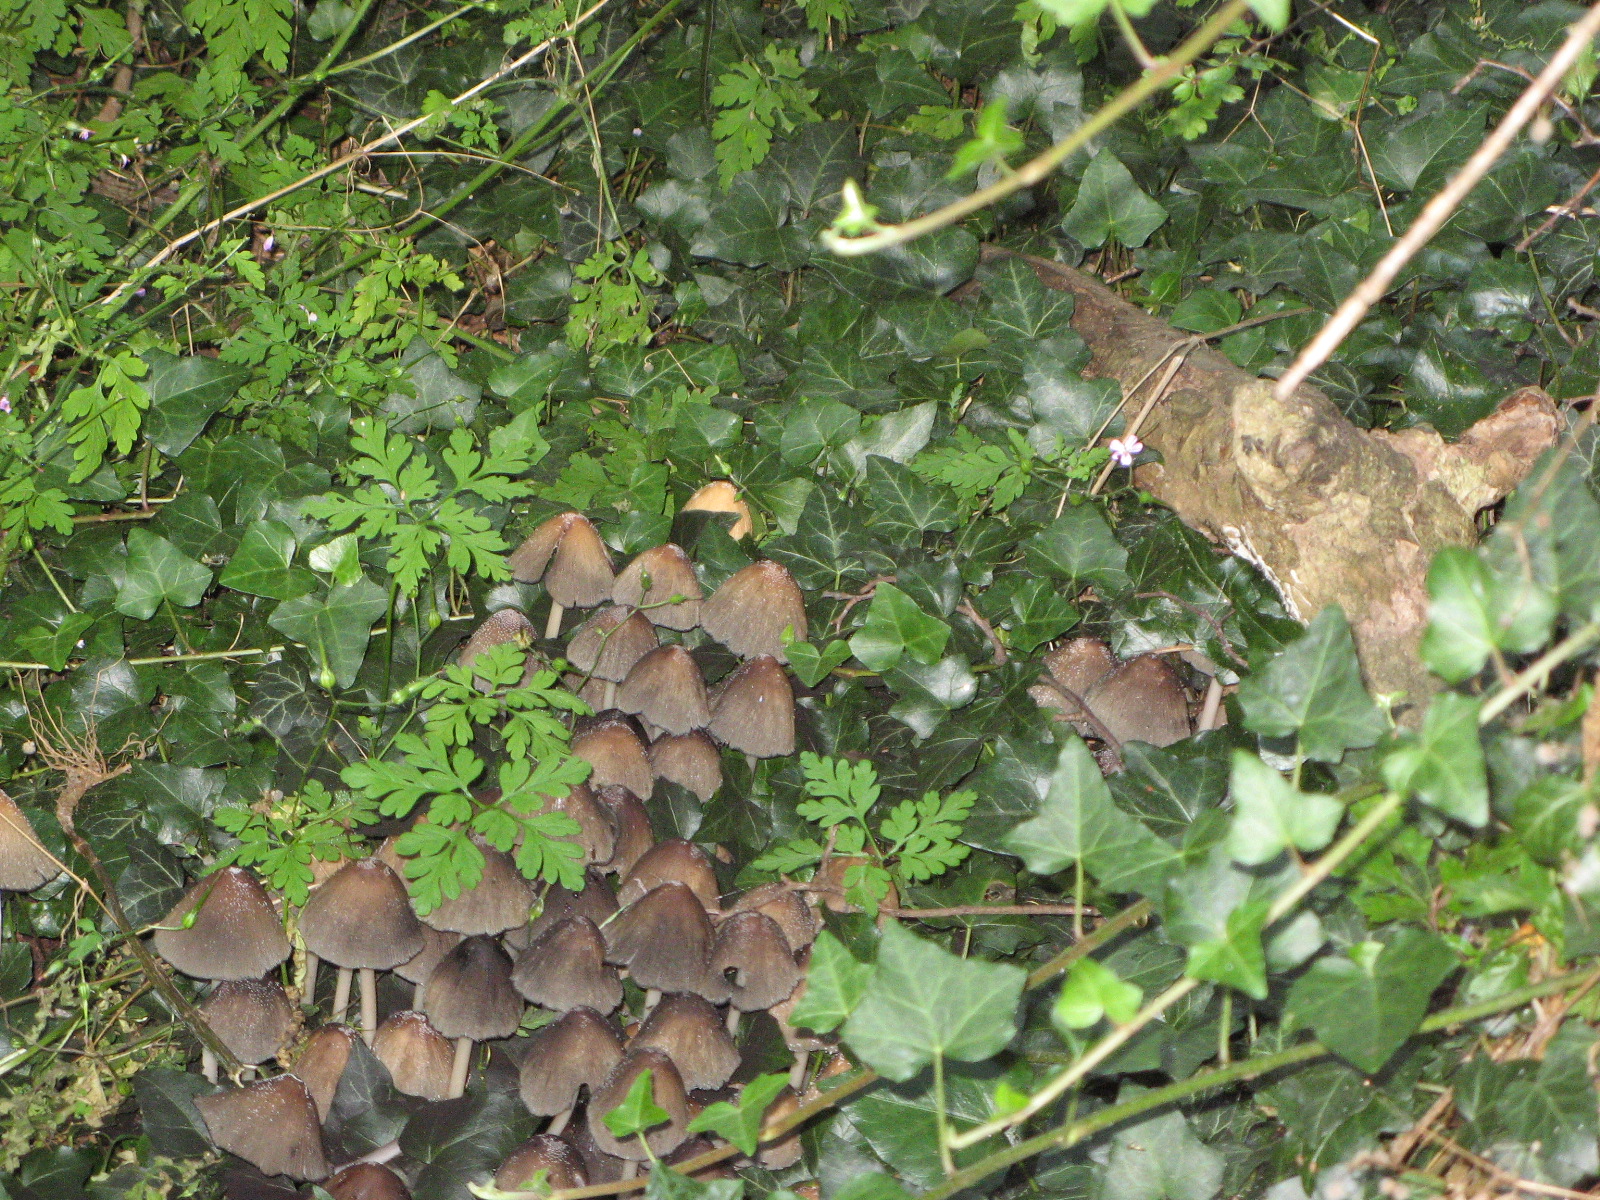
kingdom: Fungi
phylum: Basidiomycota
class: Agaricomycetes
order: Agaricales
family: Psathyrellaceae
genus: Coprinellus
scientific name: Coprinellus micaceus
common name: glimmer-blækhat
